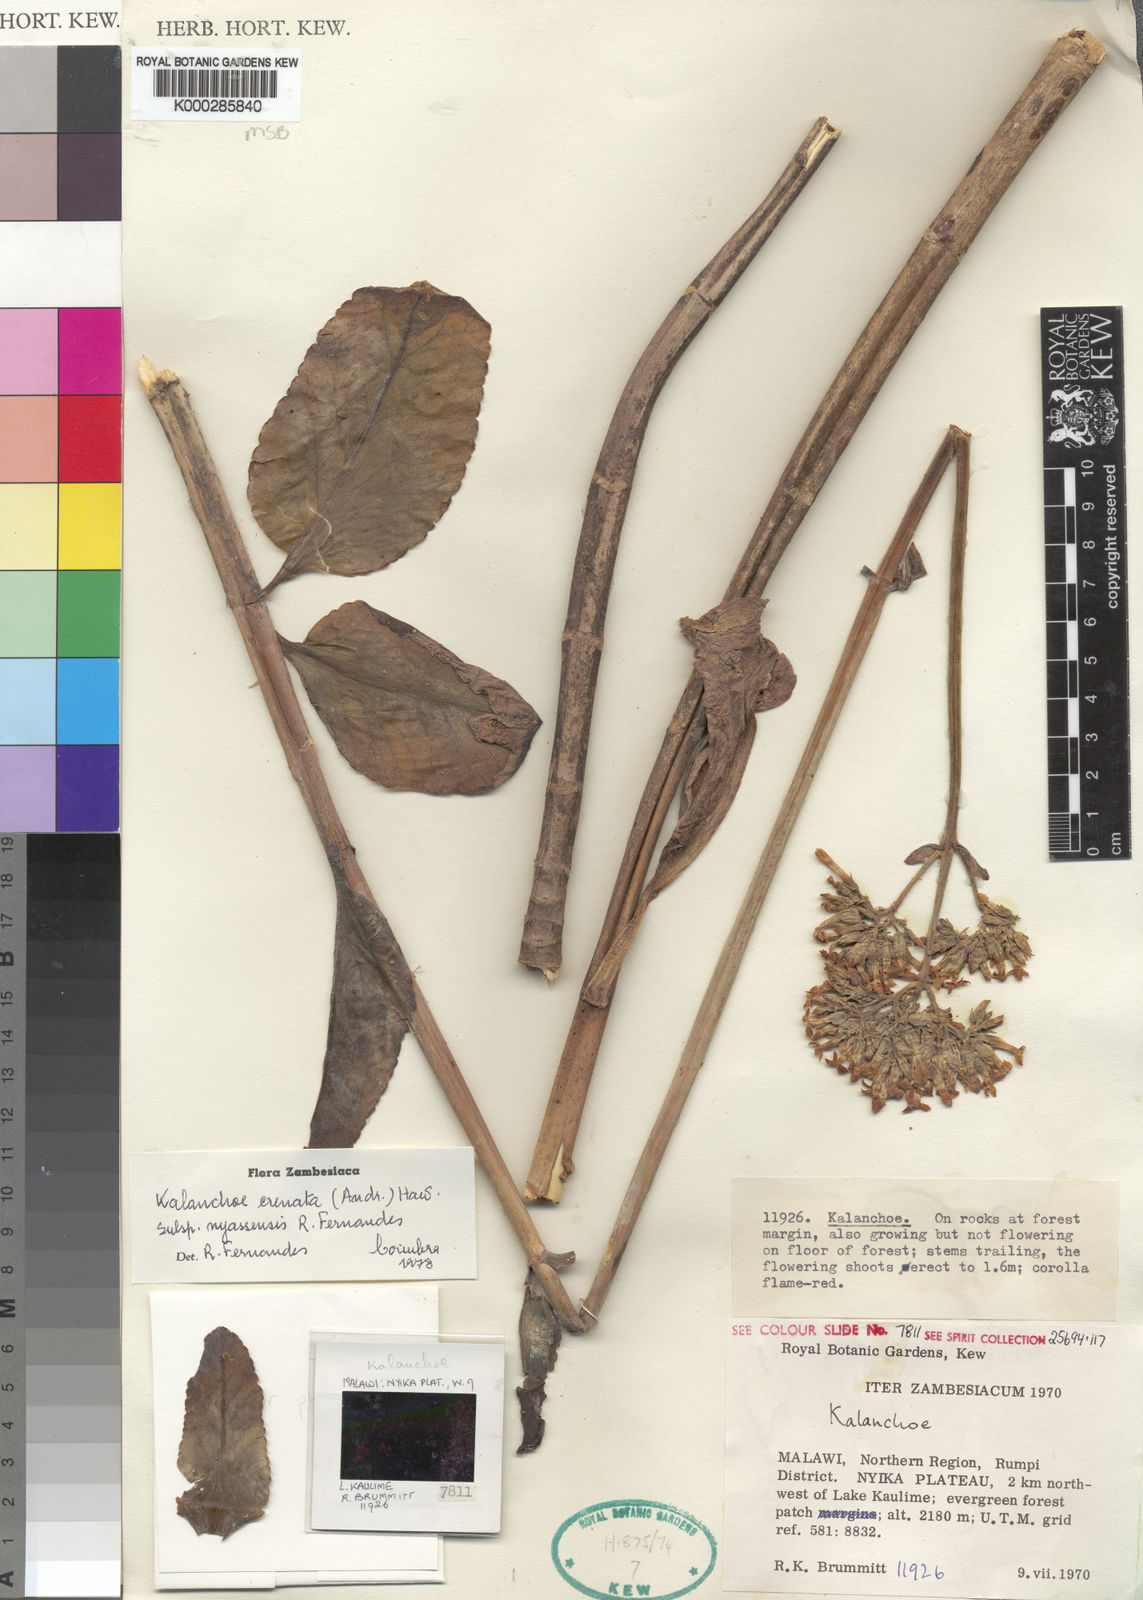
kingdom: Plantae
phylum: Tracheophyta
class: Magnoliopsida
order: Saxifragales
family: Crassulaceae
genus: Kalanchoe
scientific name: Kalanchoe crenata
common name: Neverdie
